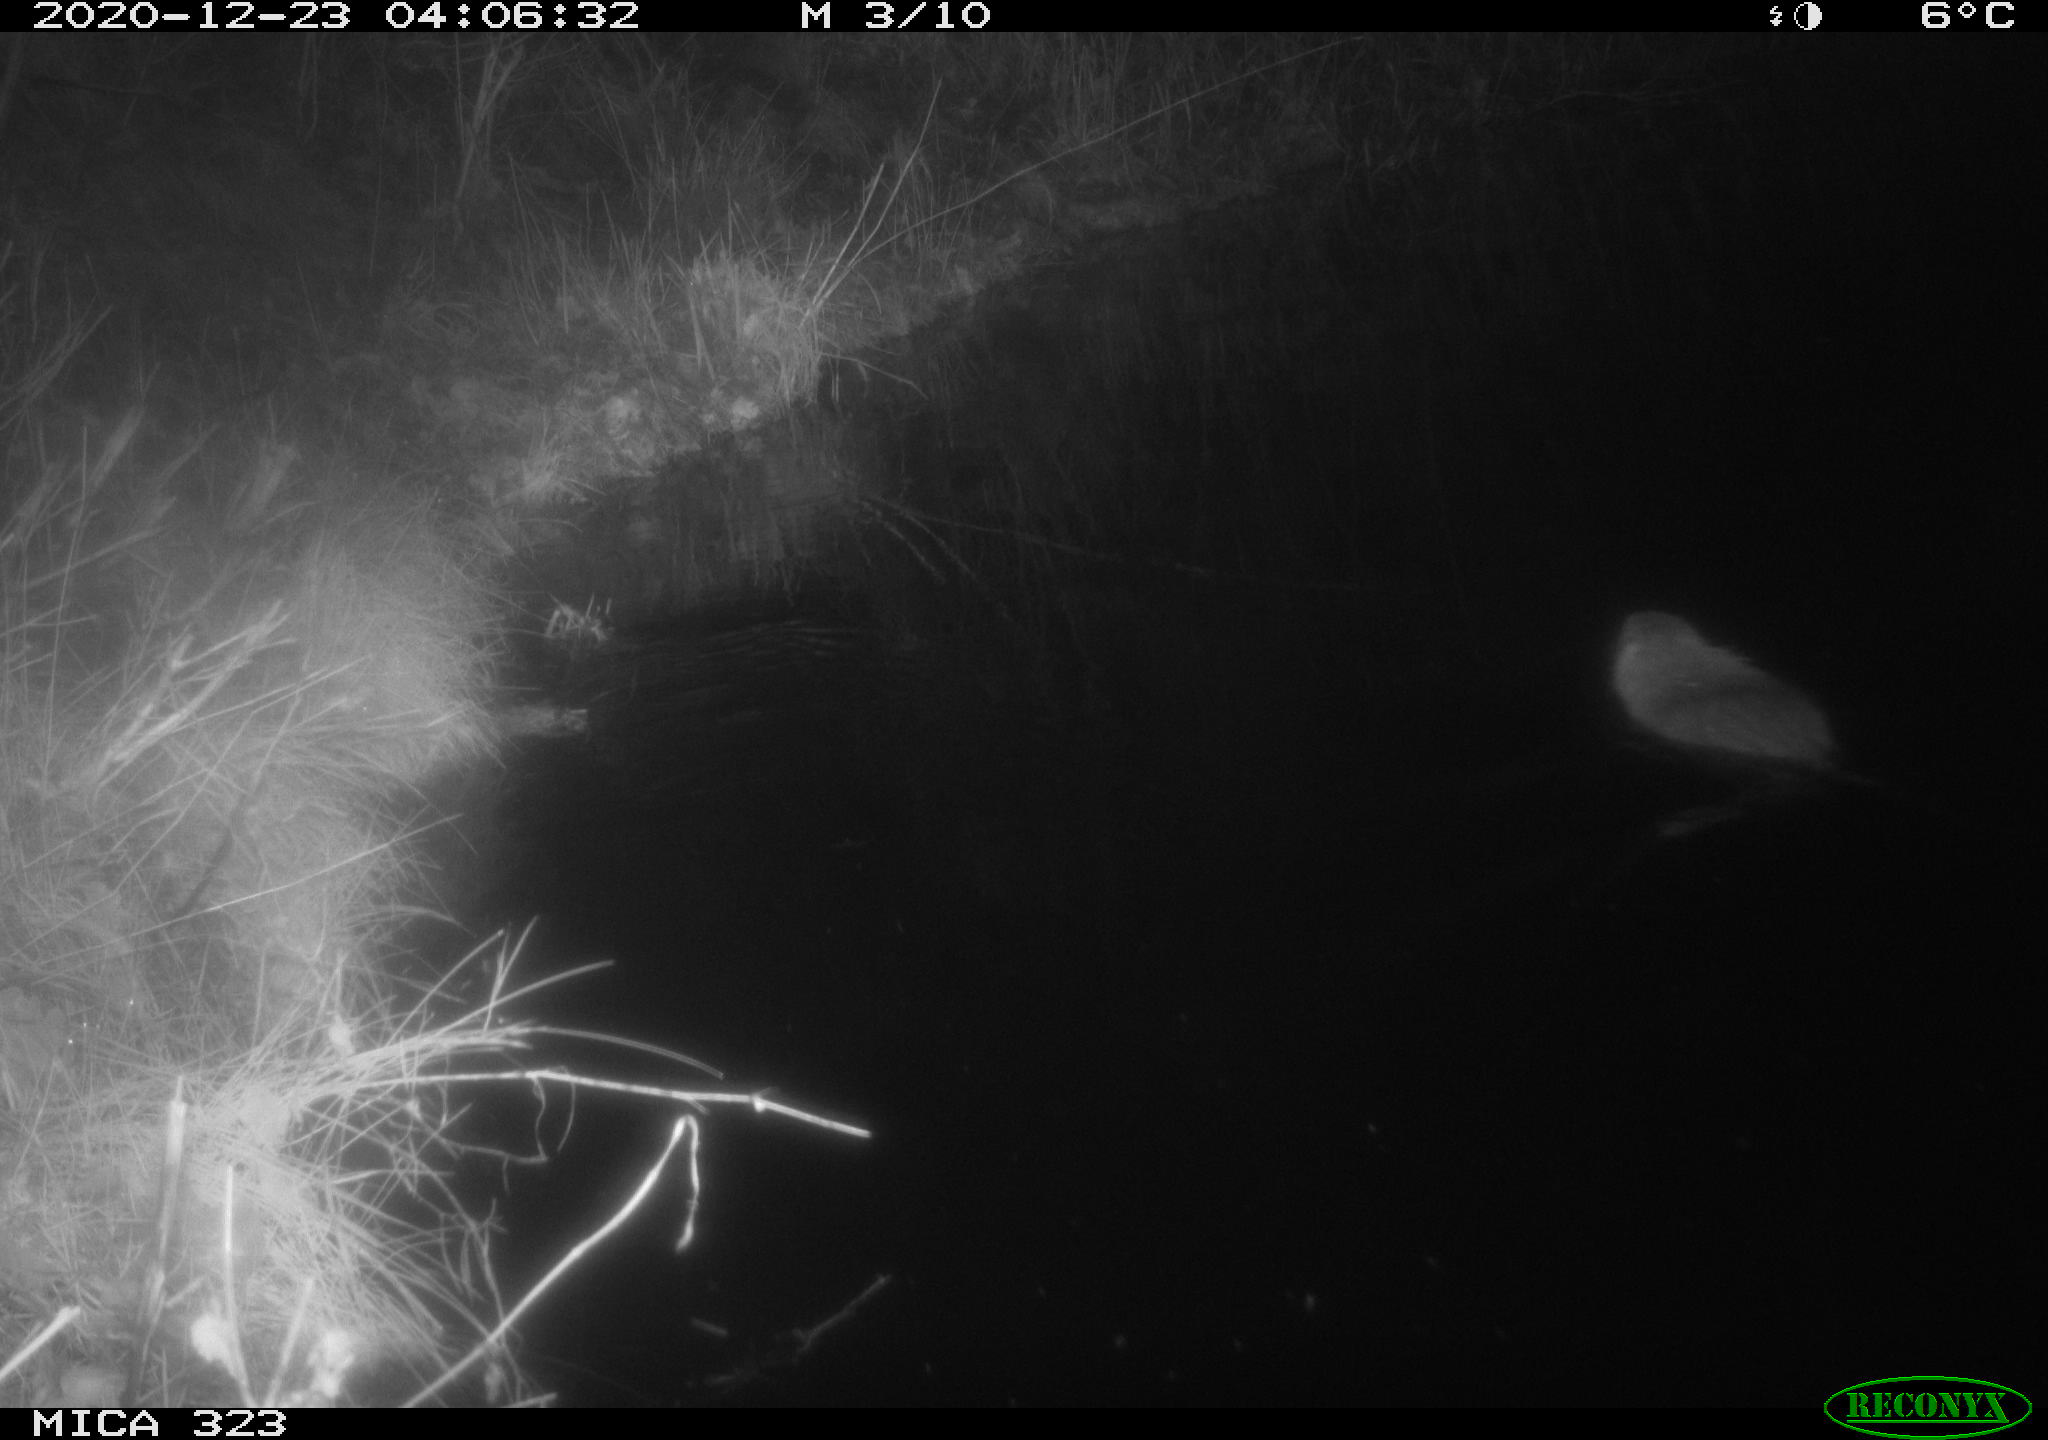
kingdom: Animalia
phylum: Chordata
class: Mammalia
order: Rodentia
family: Myocastoridae
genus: Myocastor
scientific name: Myocastor coypus
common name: Coypu
